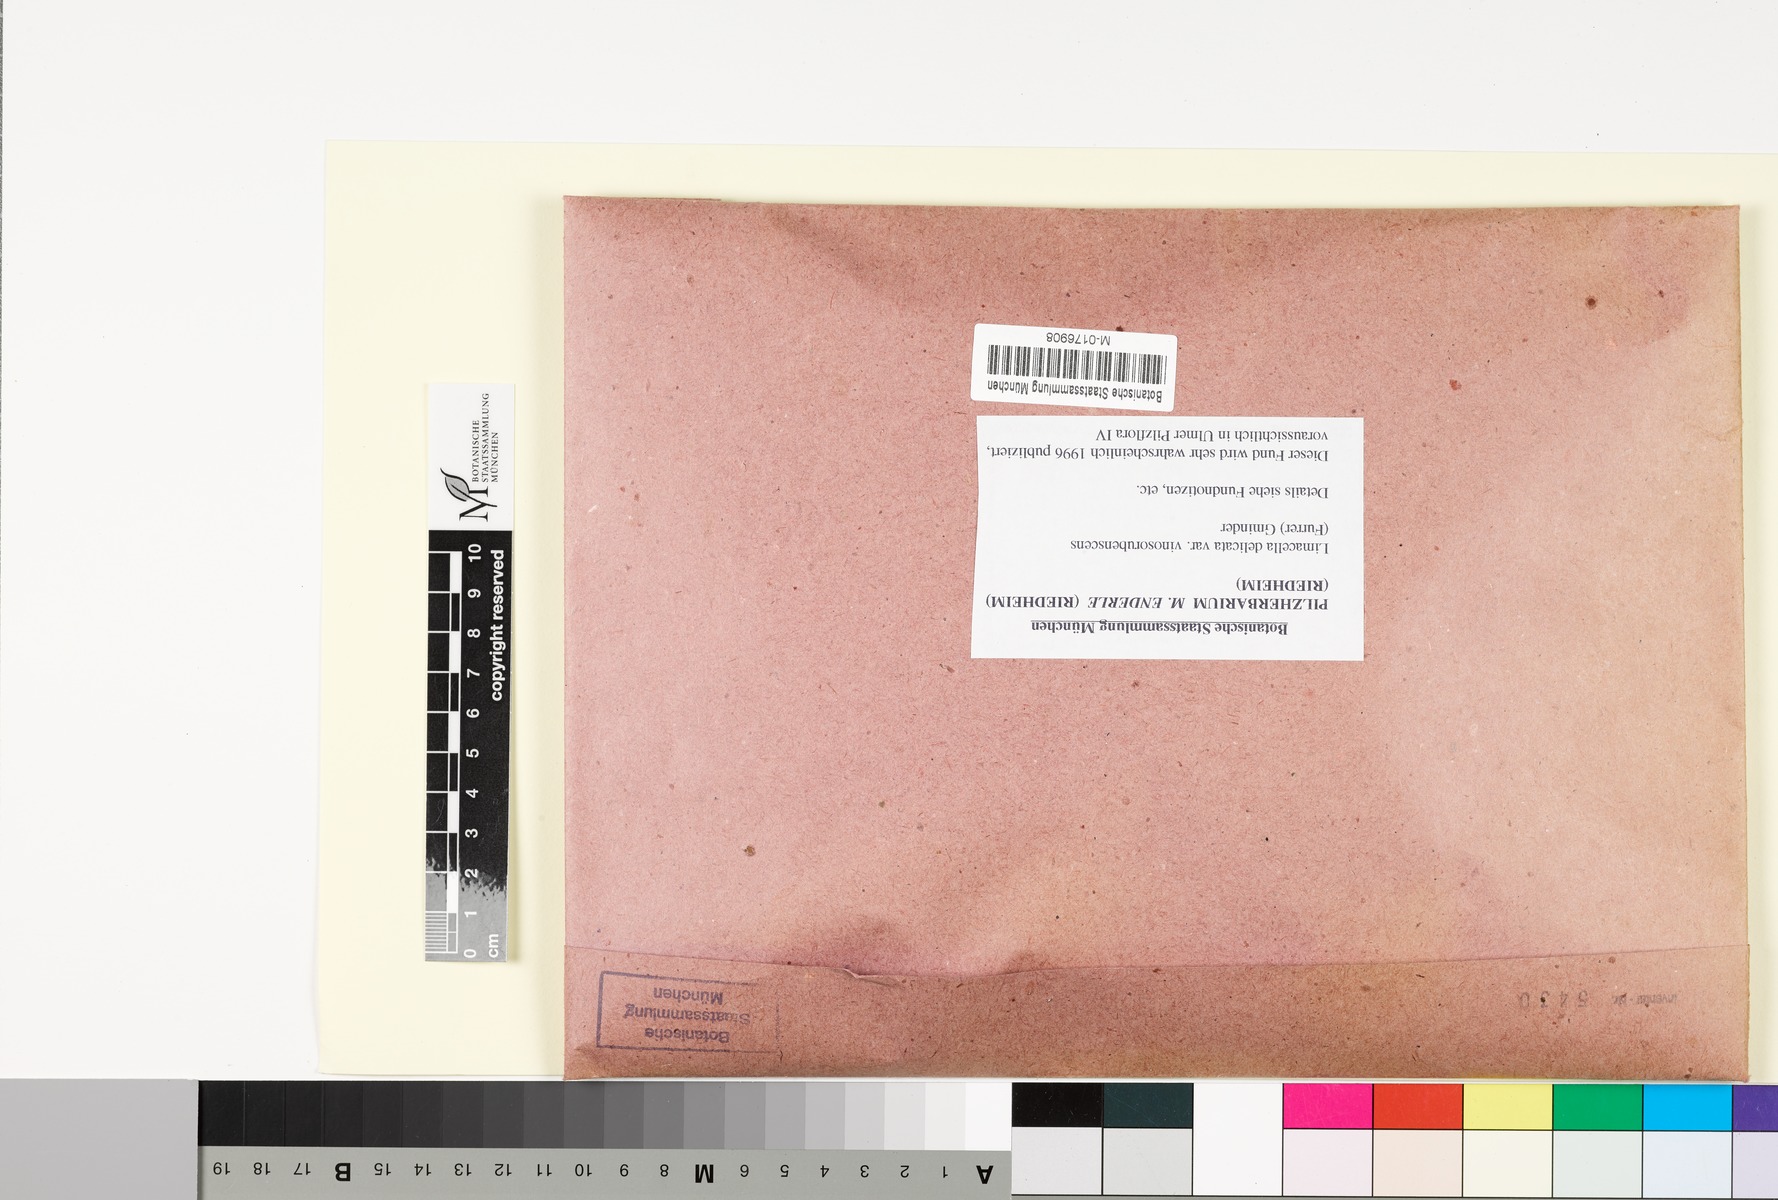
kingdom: Fungi
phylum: Basidiomycota
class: Agaricomycetes
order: Agaricales
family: Amanitaceae
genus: Limacella
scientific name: Limacella delicata
